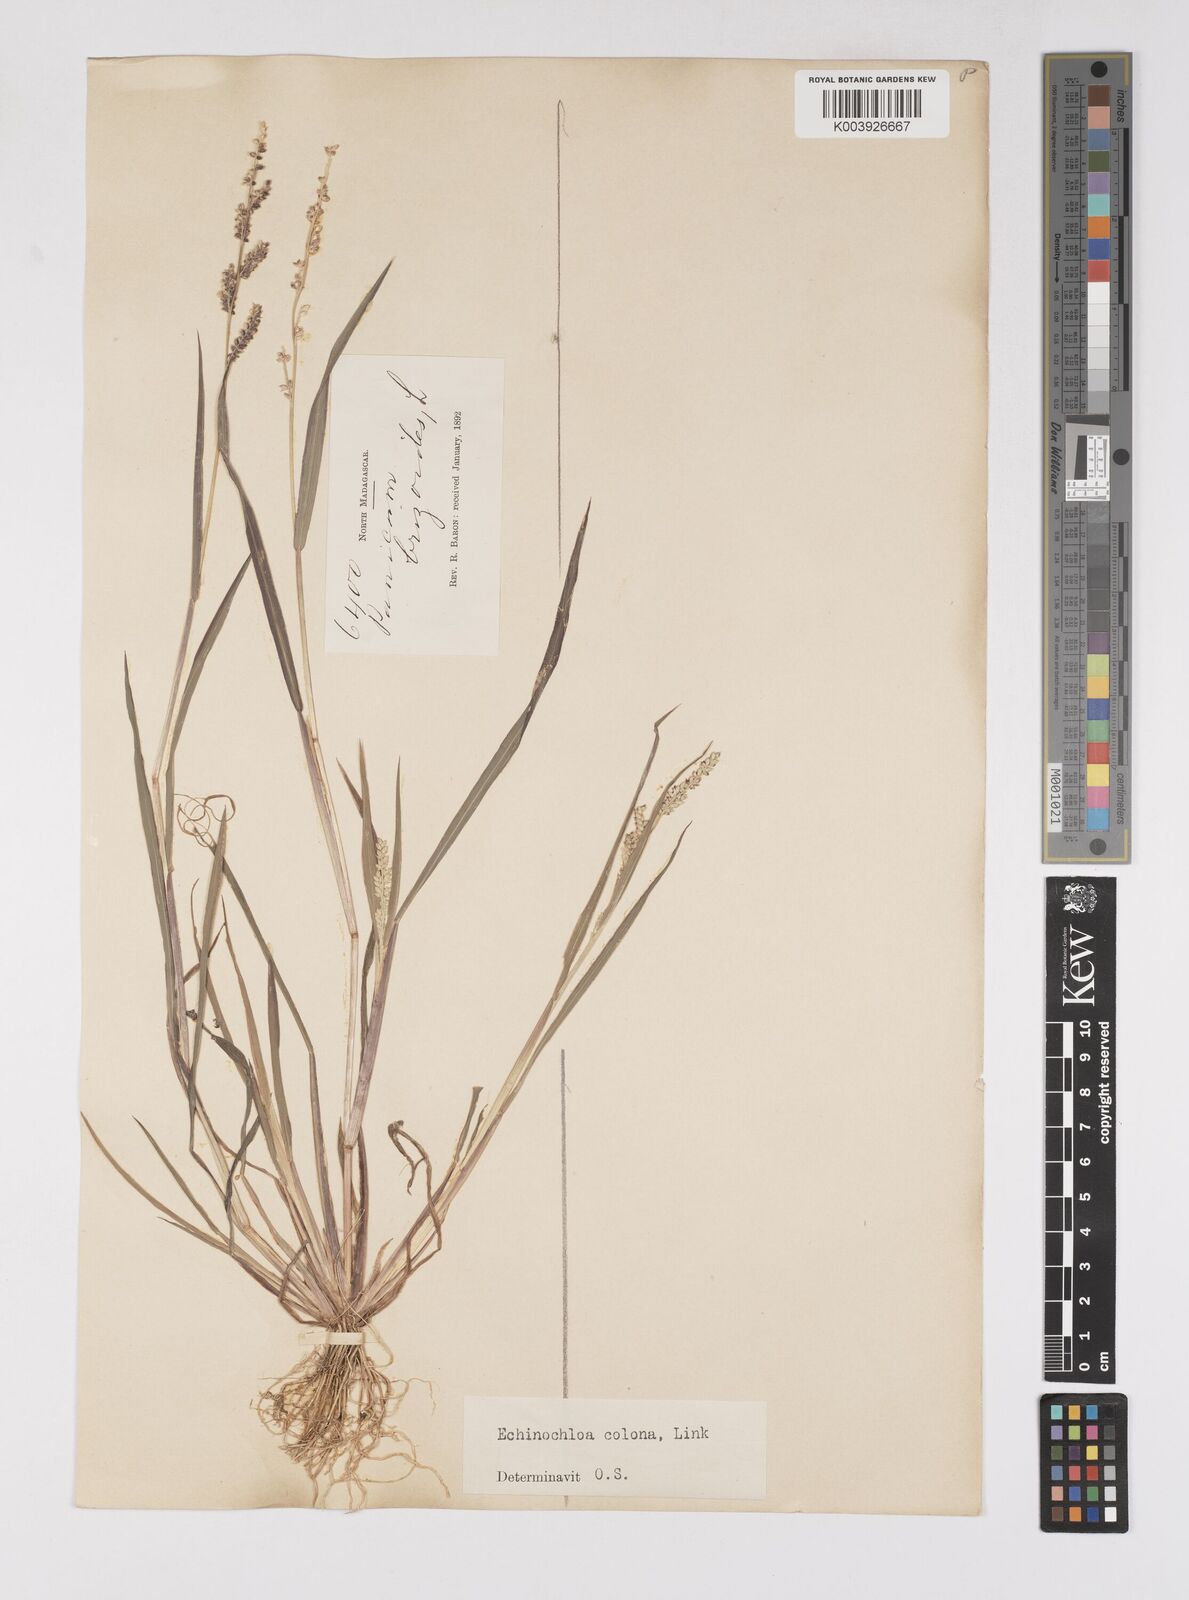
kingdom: Plantae
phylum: Tracheophyta
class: Liliopsida
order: Poales
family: Poaceae
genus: Echinochloa
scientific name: Echinochloa colonum
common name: Jungle rice
